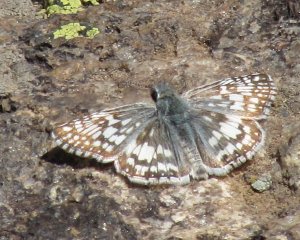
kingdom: Animalia
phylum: Arthropoda
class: Insecta
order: Lepidoptera
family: Hesperiidae
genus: Pyrgus
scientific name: Pyrgus communis
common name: Common Checkered-Skipper
